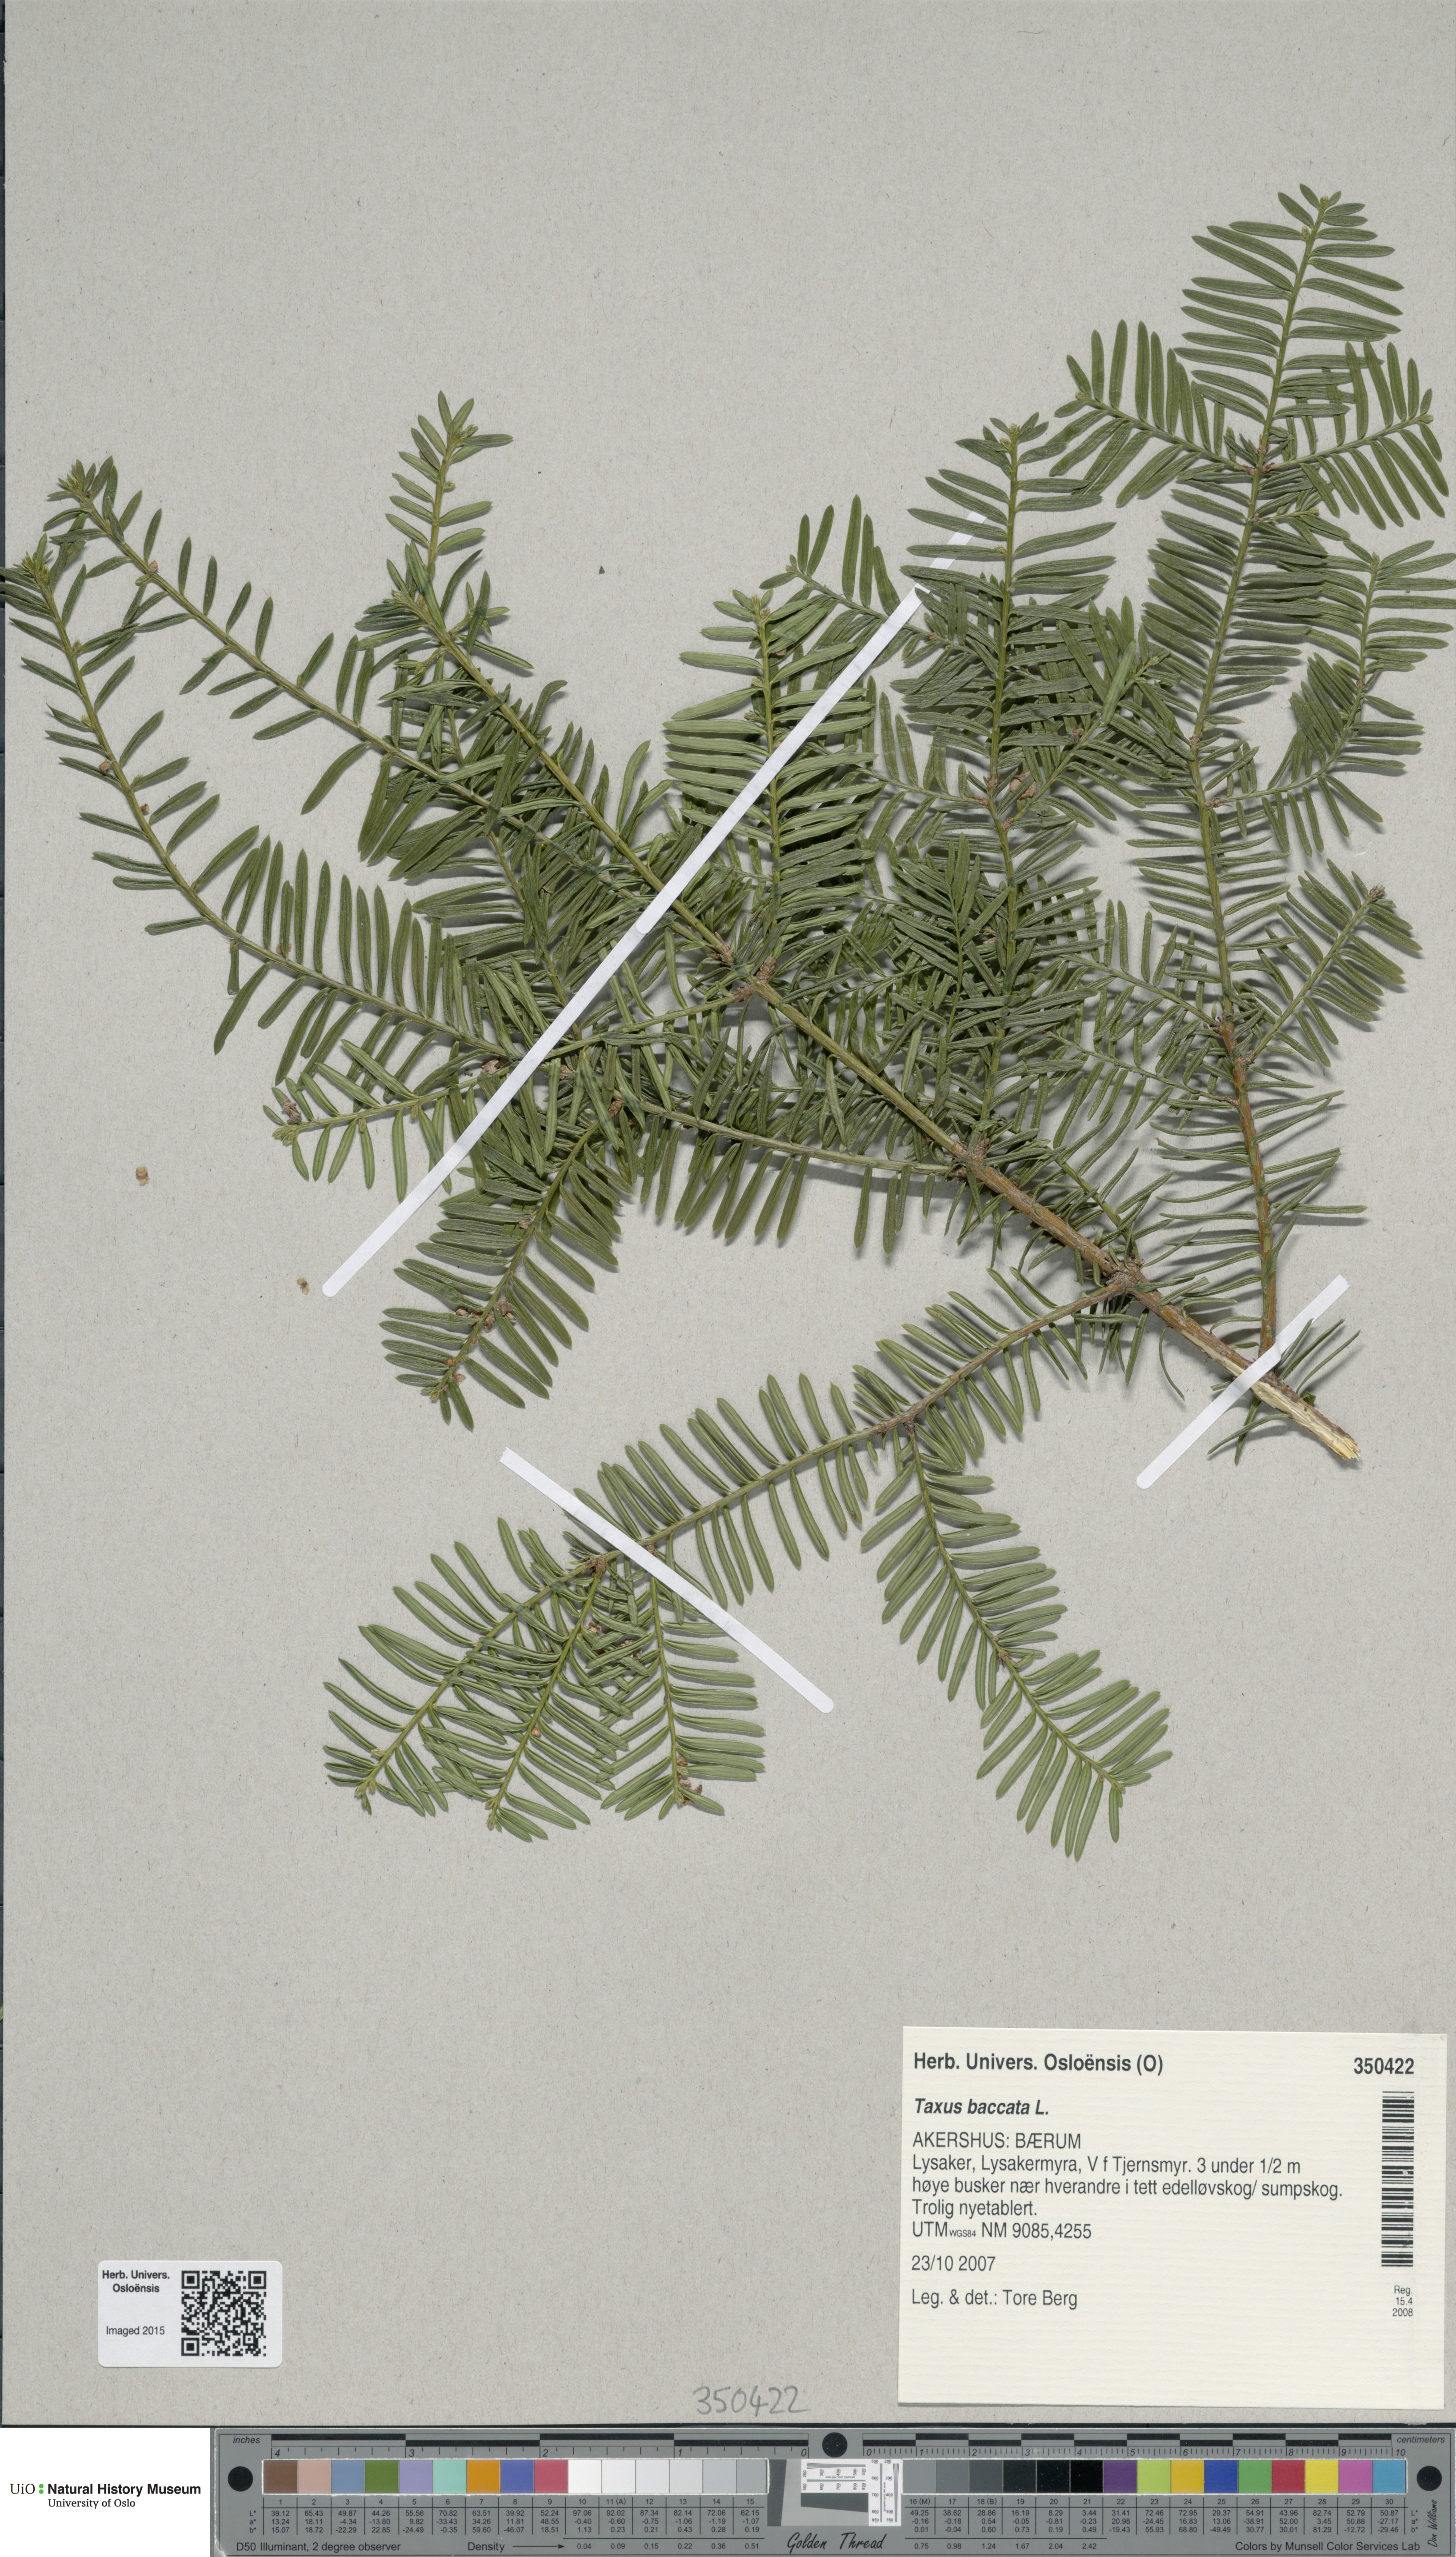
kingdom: Plantae
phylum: Tracheophyta
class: Pinopsida
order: Pinales
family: Taxaceae
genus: Taxus
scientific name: Taxus baccata
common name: Yew
